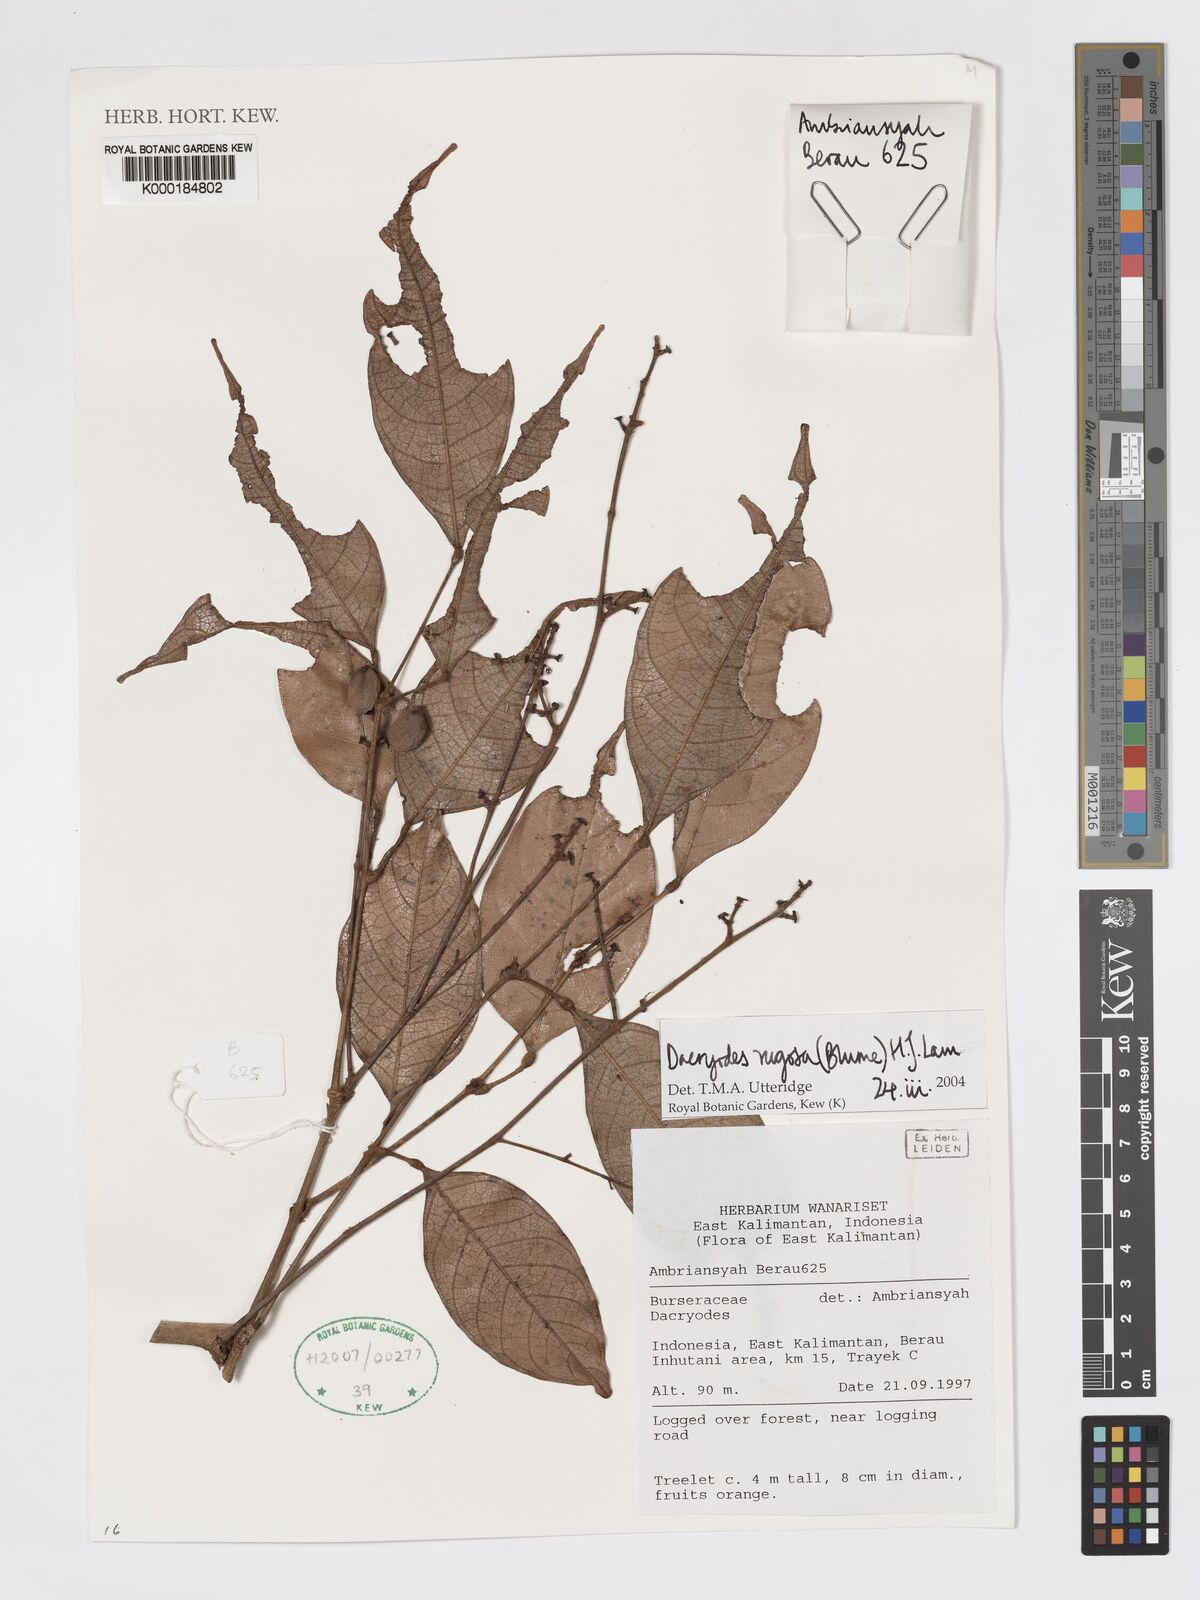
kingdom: Plantae
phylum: Tracheophyta
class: Magnoliopsida
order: Sapindales
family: Burseraceae
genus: Dacryodes
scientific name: Dacryodes rugosa
